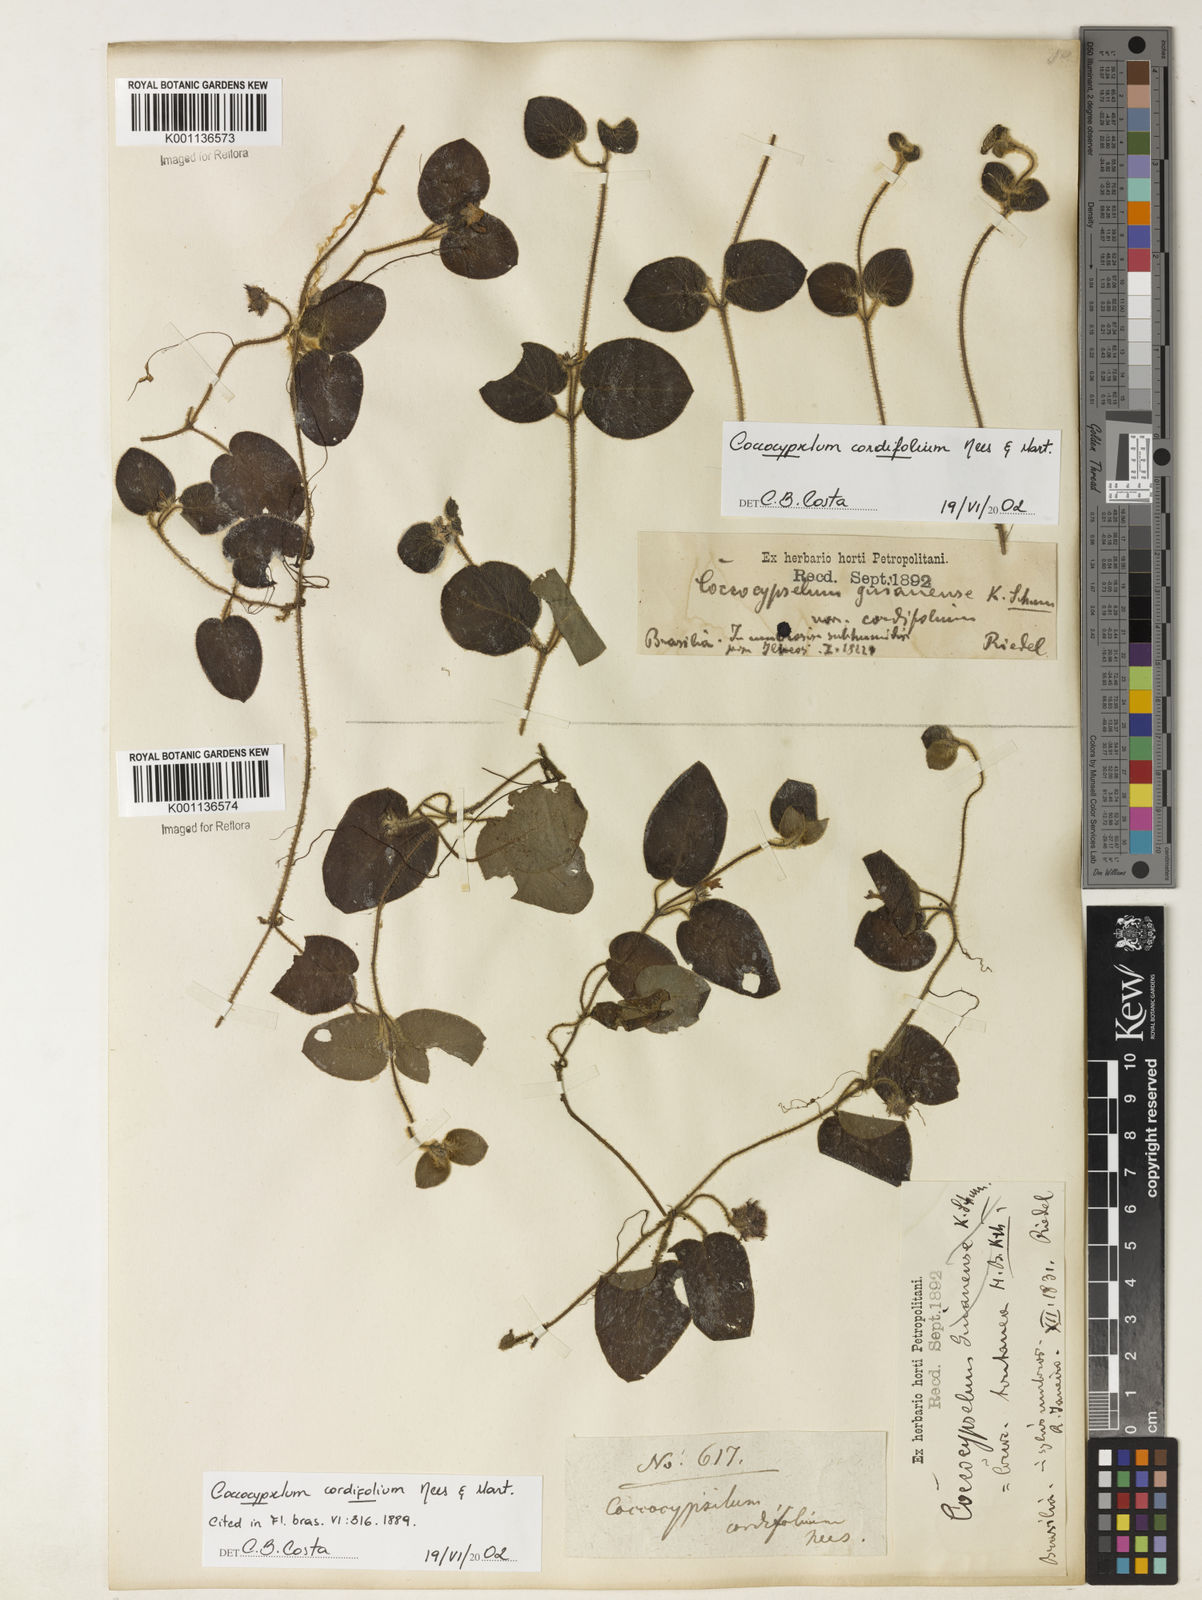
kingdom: Plantae
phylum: Tracheophyta
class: Magnoliopsida
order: Gentianales
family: Rubiaceae
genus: Coccocypselum
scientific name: Coccocypselum cordifolium
